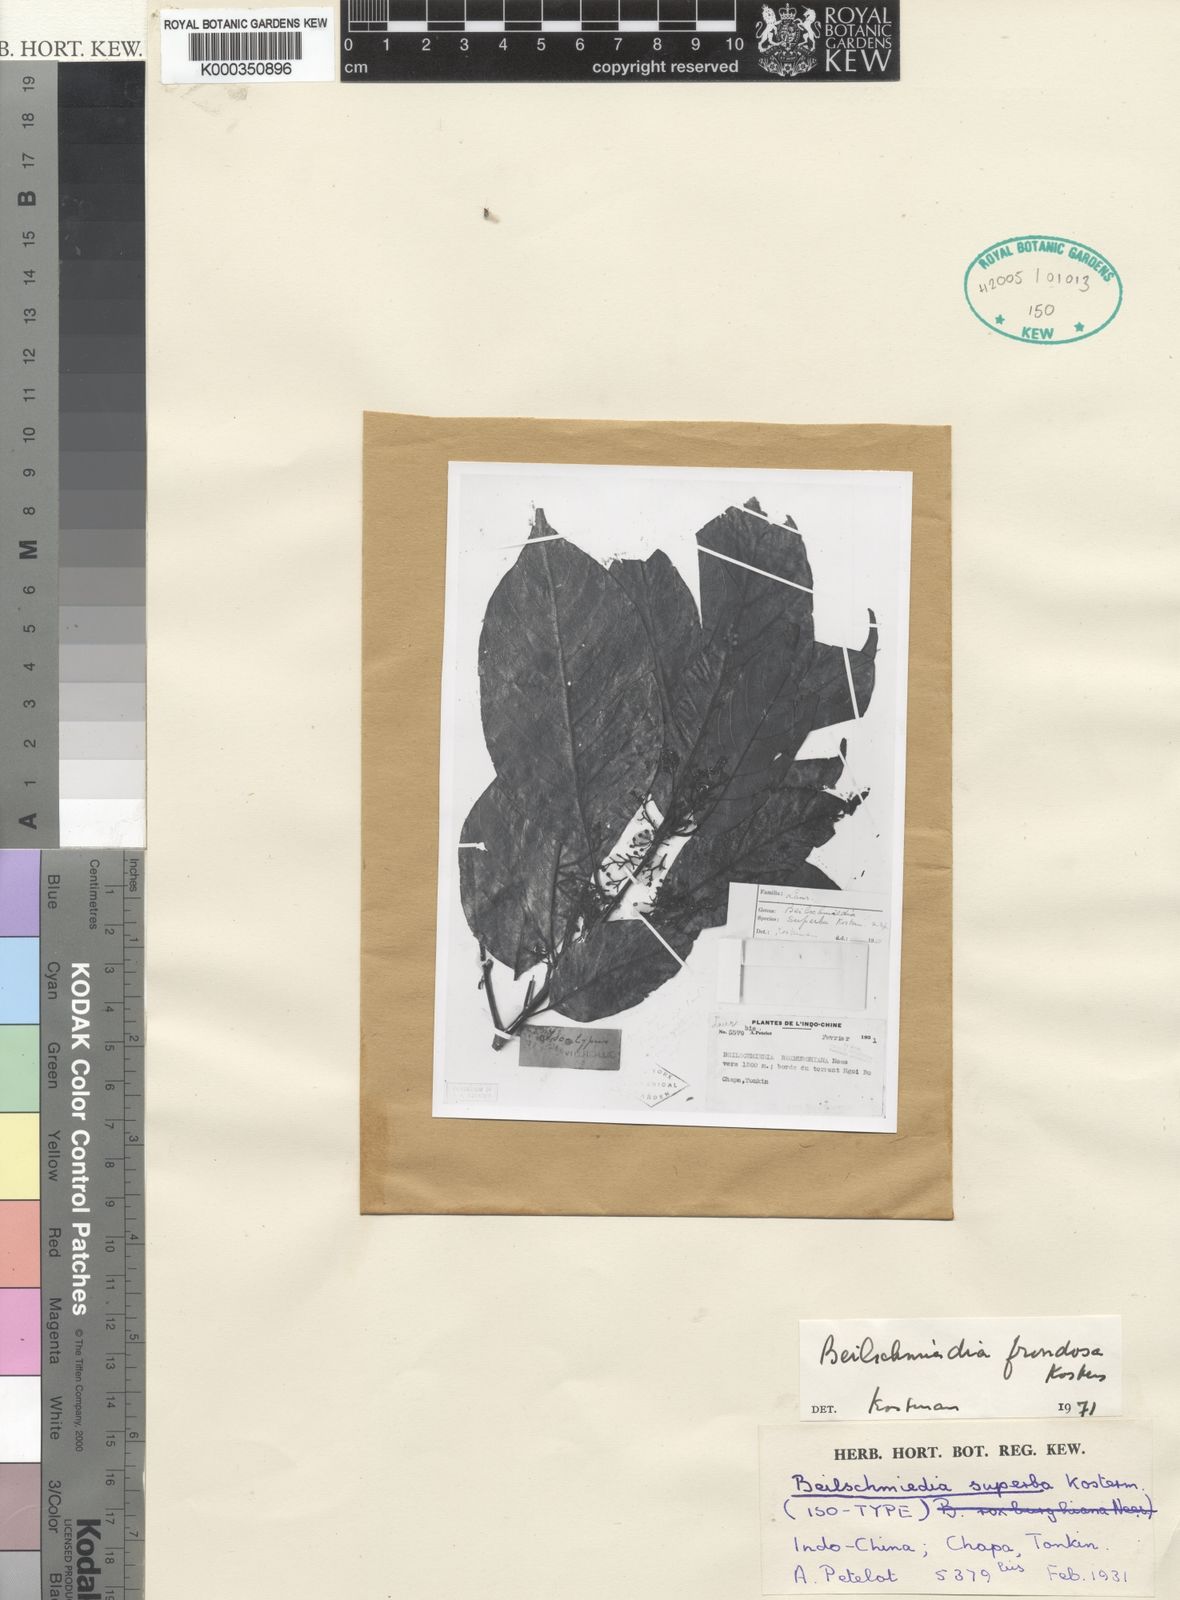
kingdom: Plantae
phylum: Tracheophyta
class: Magnoliopsida
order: Laurales
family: Lauraceae
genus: Beilschmiedia
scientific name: Beilschmiedia superba
